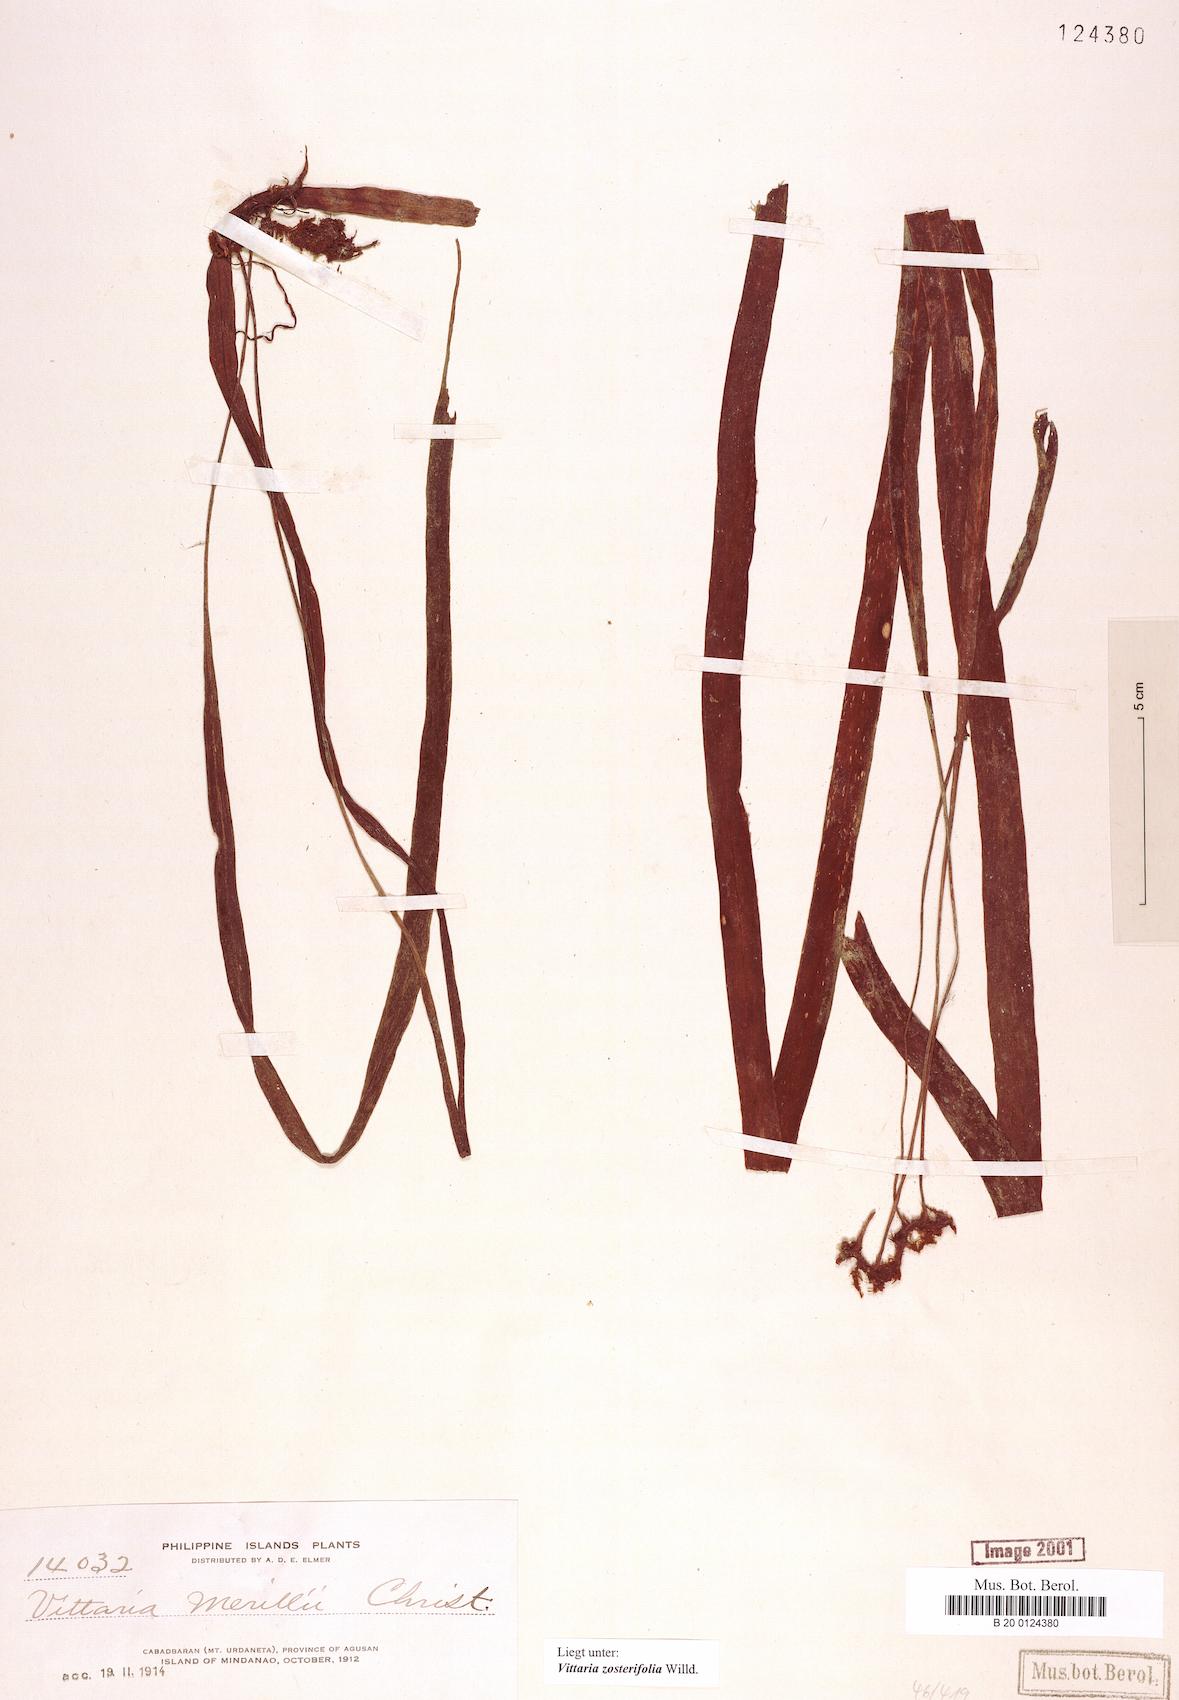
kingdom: Plantae
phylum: Tracheophyta
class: Polypodiopsida
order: Polypodiales
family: Pteridaceae
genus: Haplopteris
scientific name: Haplopteris zosterifolia
